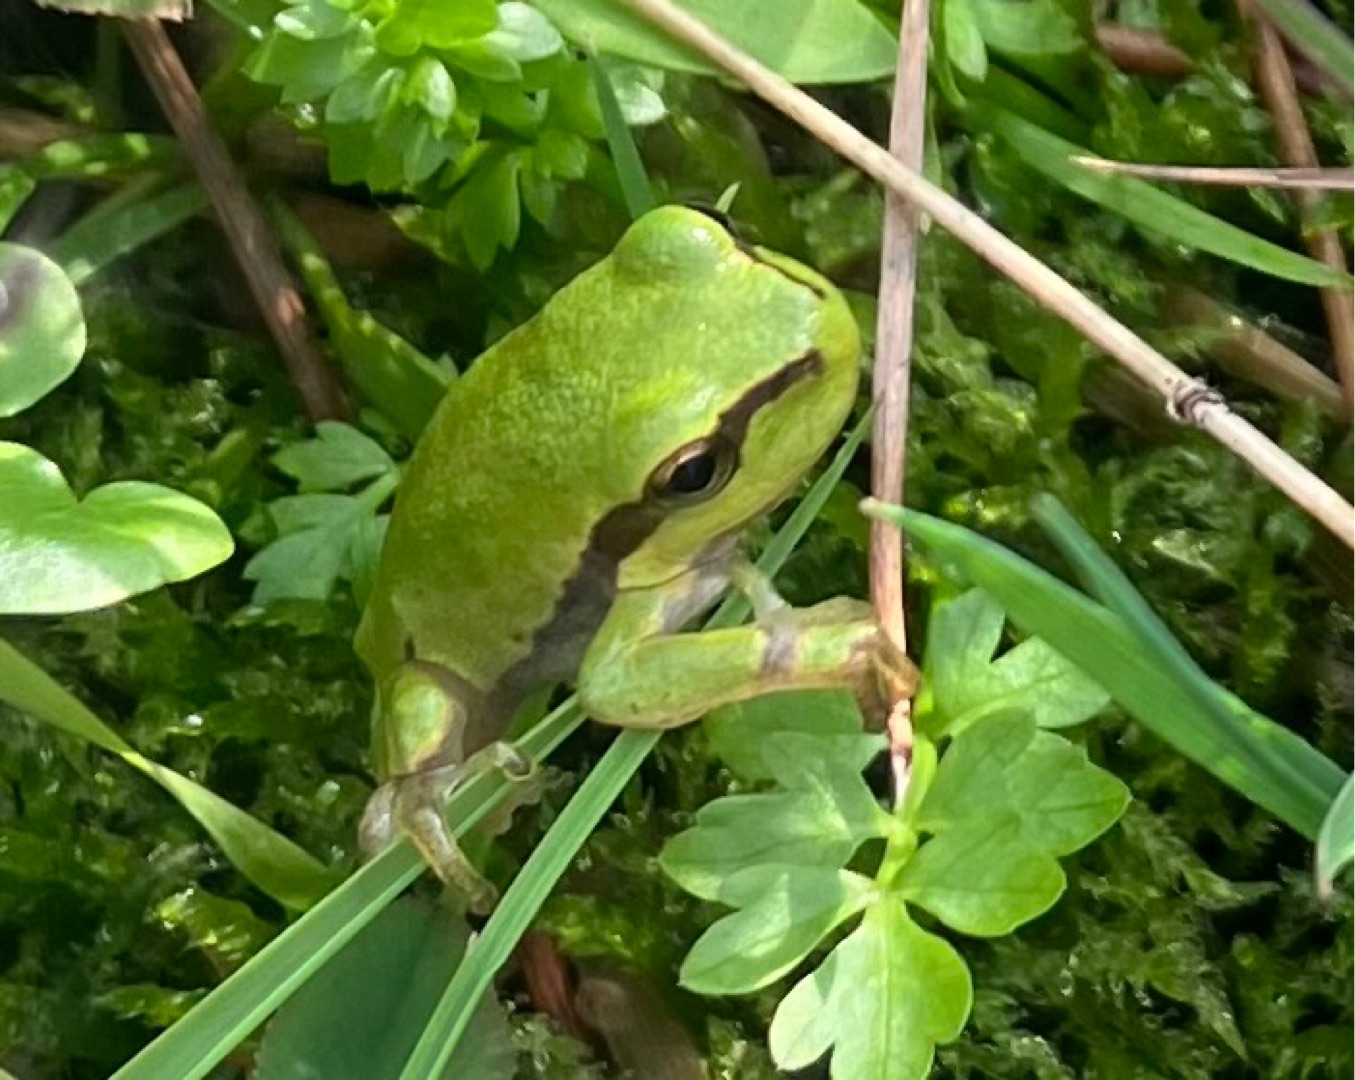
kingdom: Animalia
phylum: Chordata
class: Amphibia
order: Anura
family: Hylidae
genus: Hyla
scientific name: Hyla arborea
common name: Løvfrø
